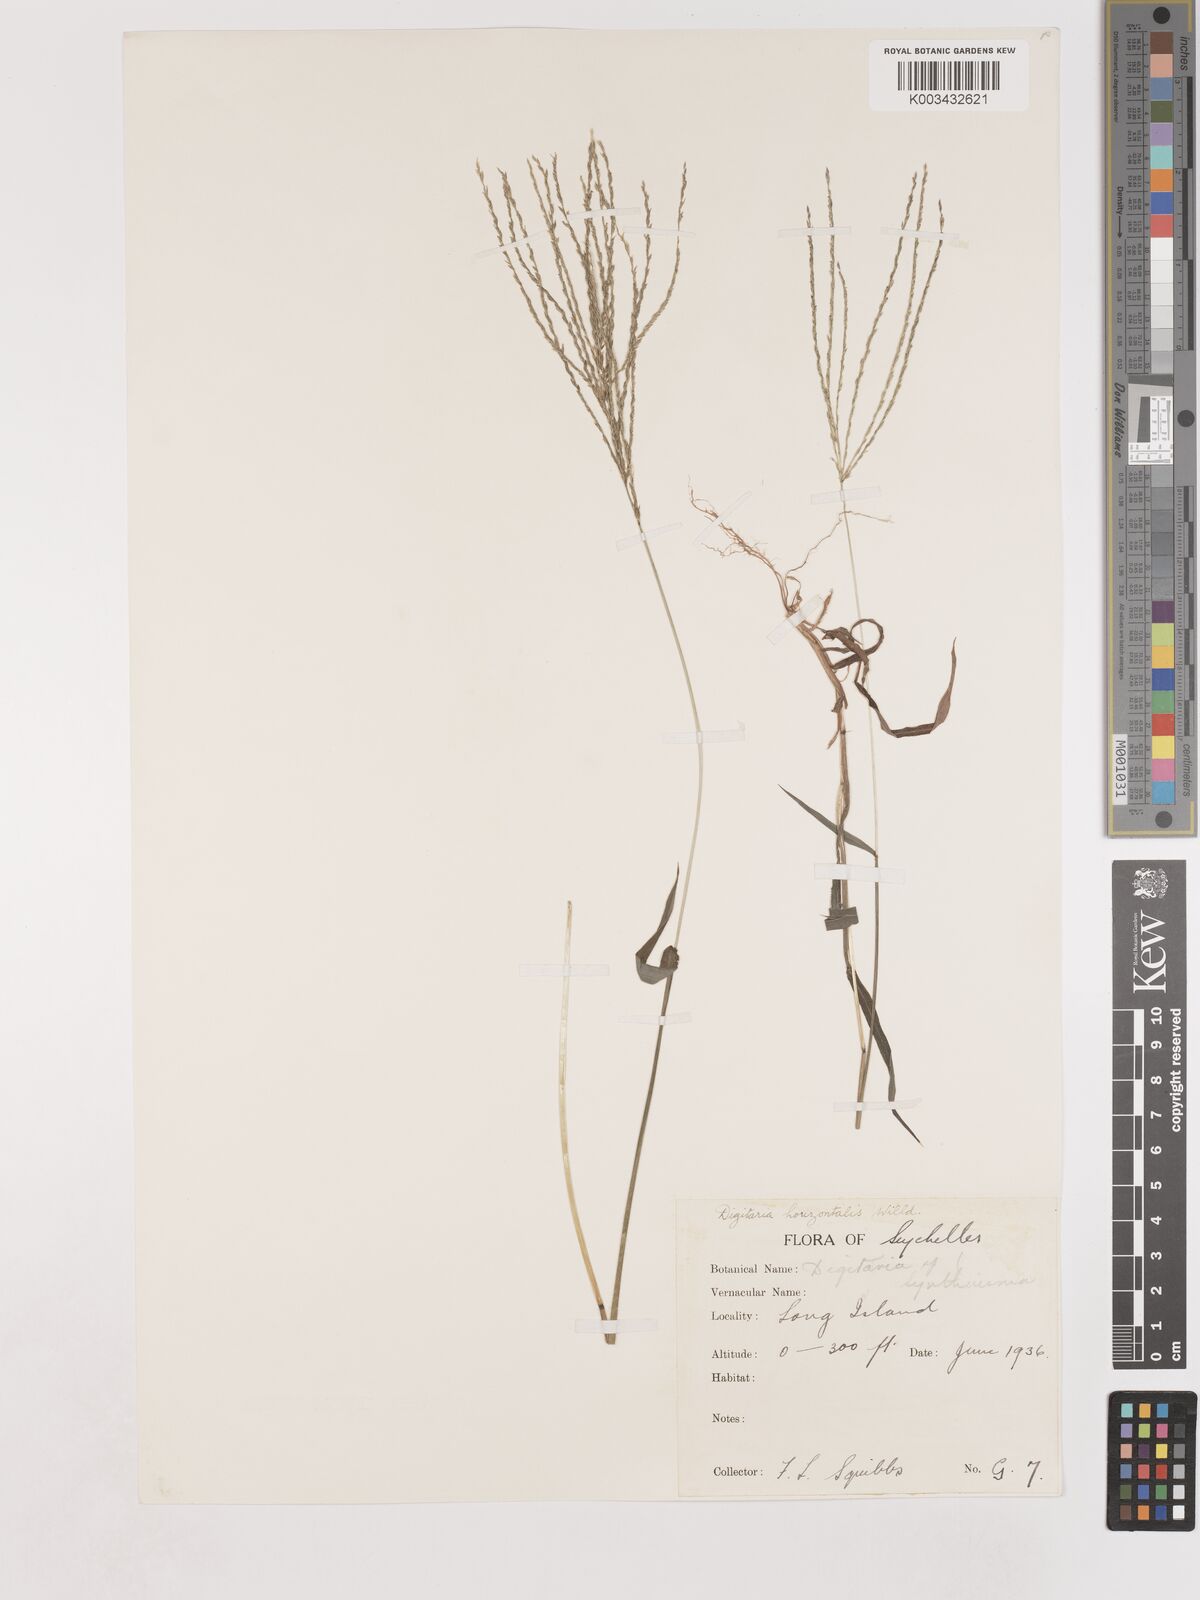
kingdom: Plantae
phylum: Tracheophyta
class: Liliopsida
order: Poales
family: Poaceae
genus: Digitaria
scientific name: Digitaria horizontalis
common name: Jamaican crabgrass
